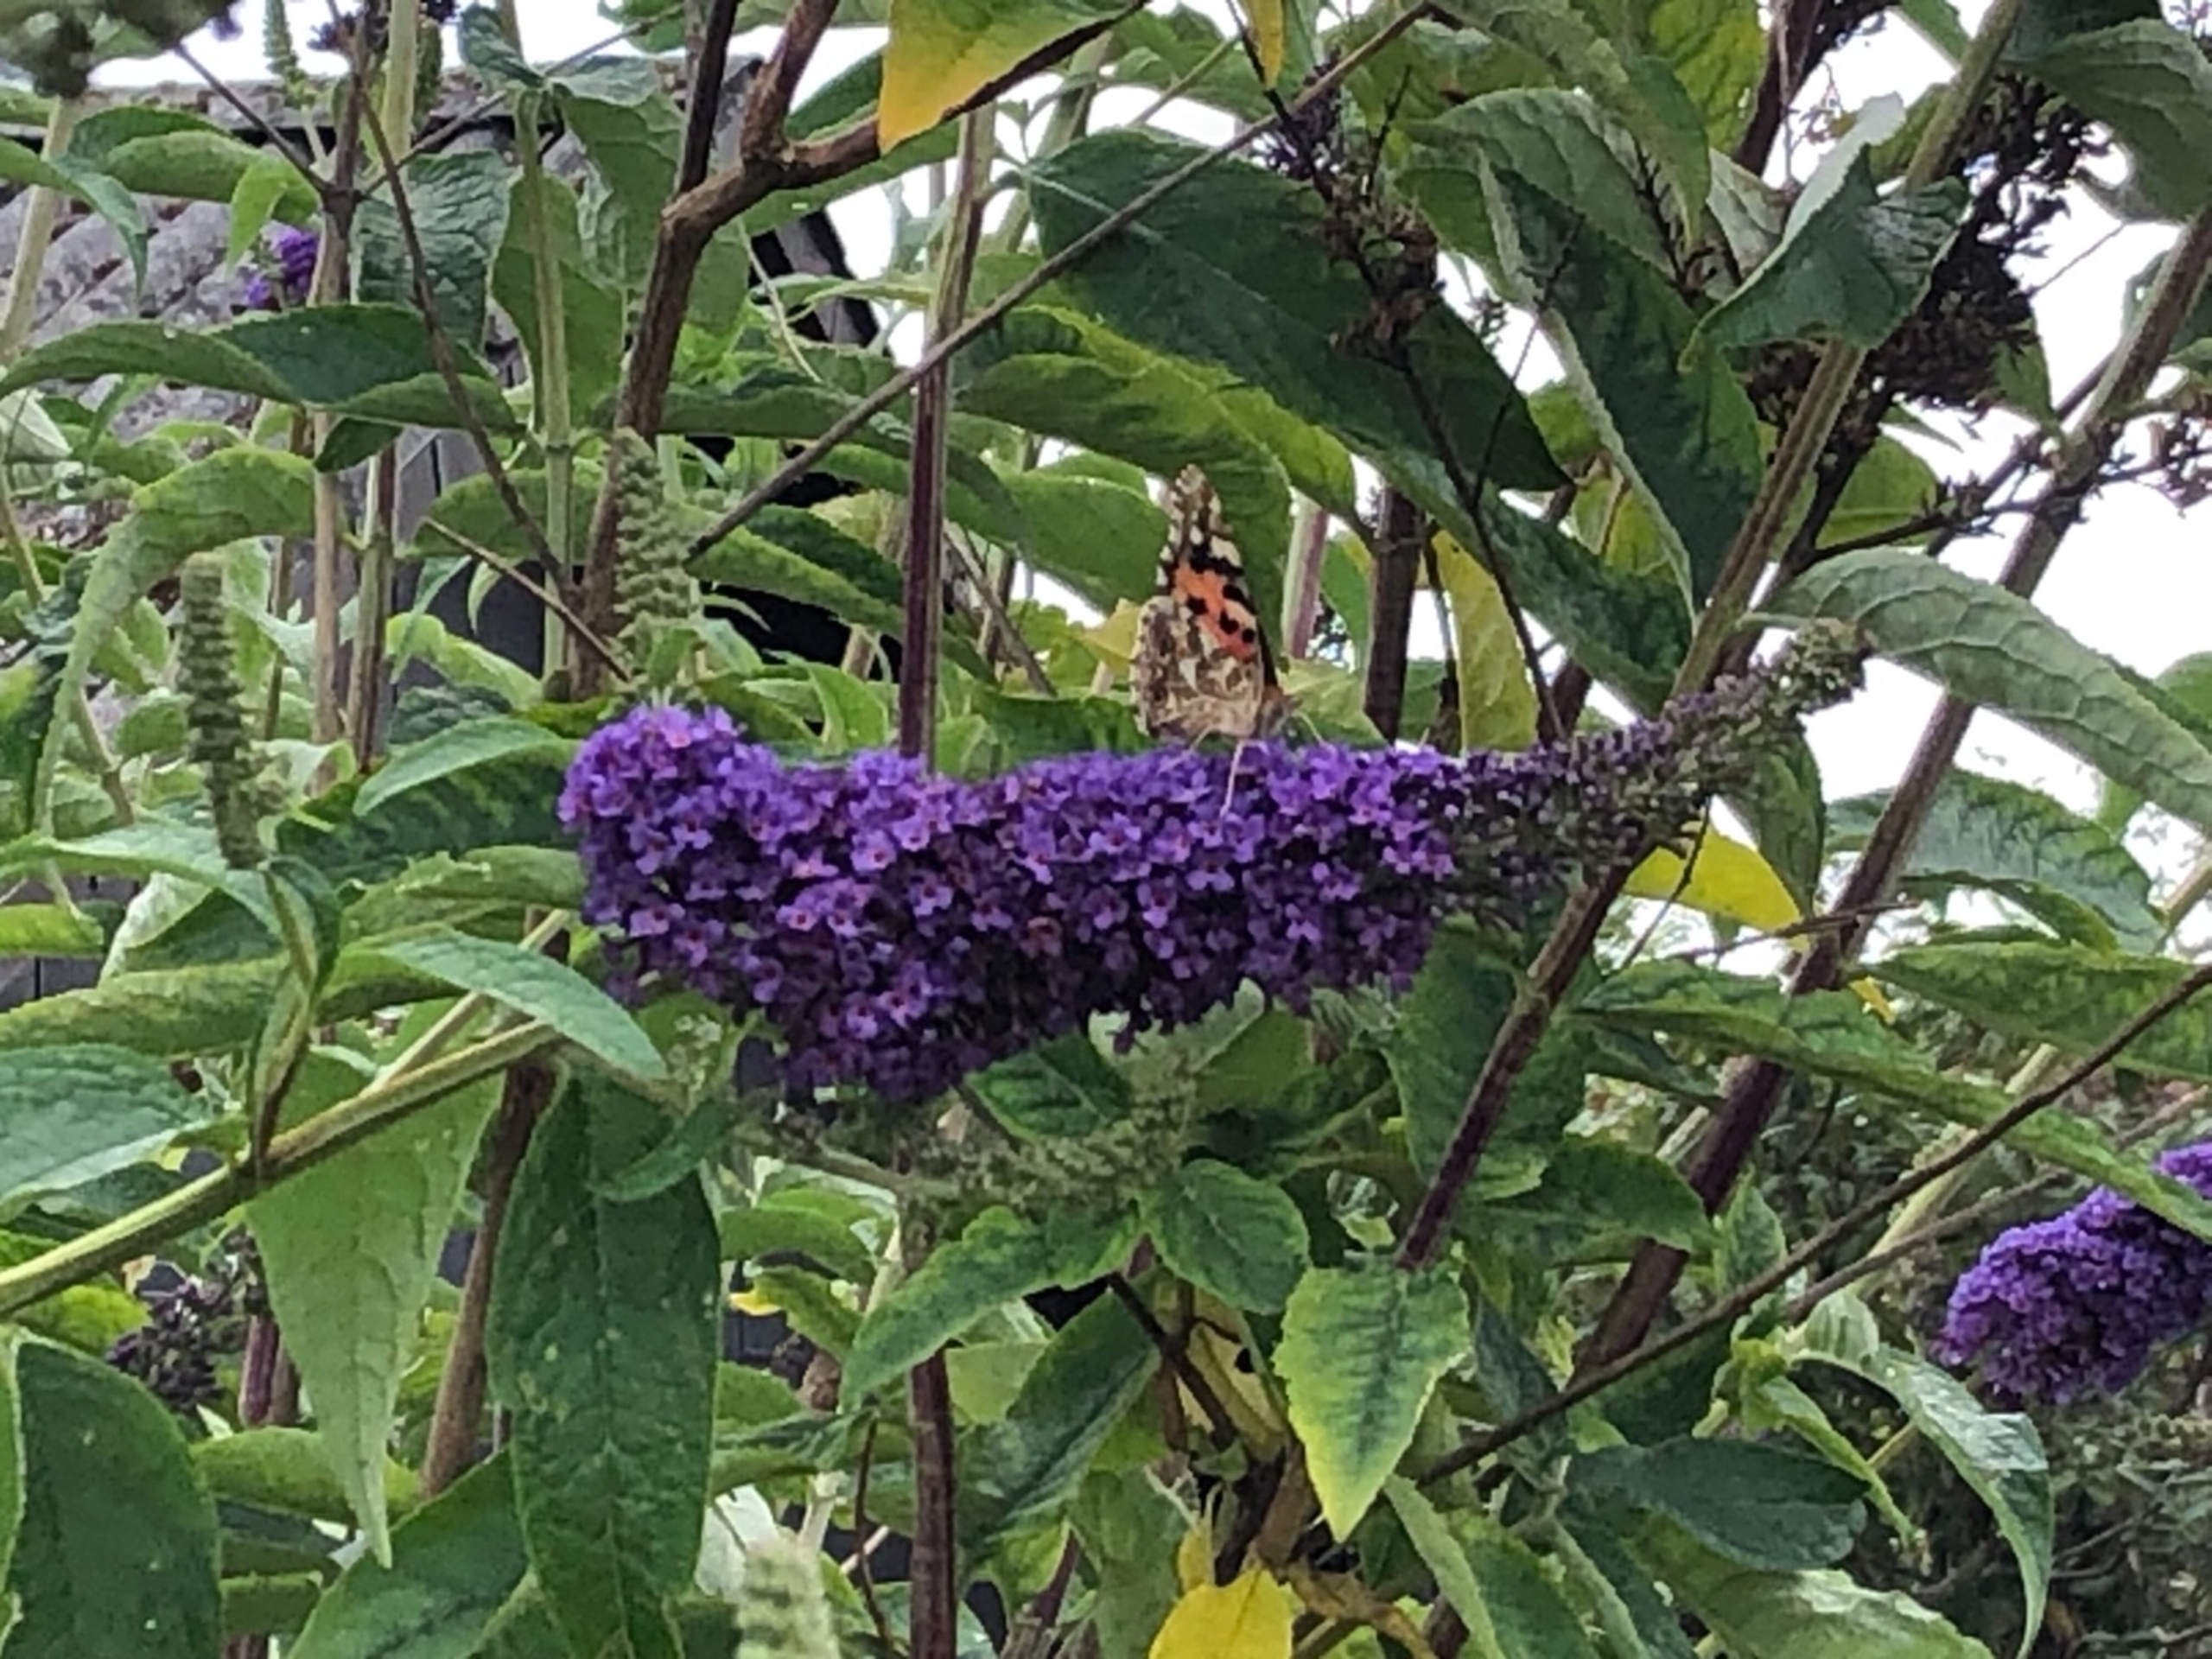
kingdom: Animalia
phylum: Arthropoda
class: Insecta
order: Lepidoptera
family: Nymphalidae
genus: Vanessa
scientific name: Vanessa cardui
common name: Tidselsommerfugl
